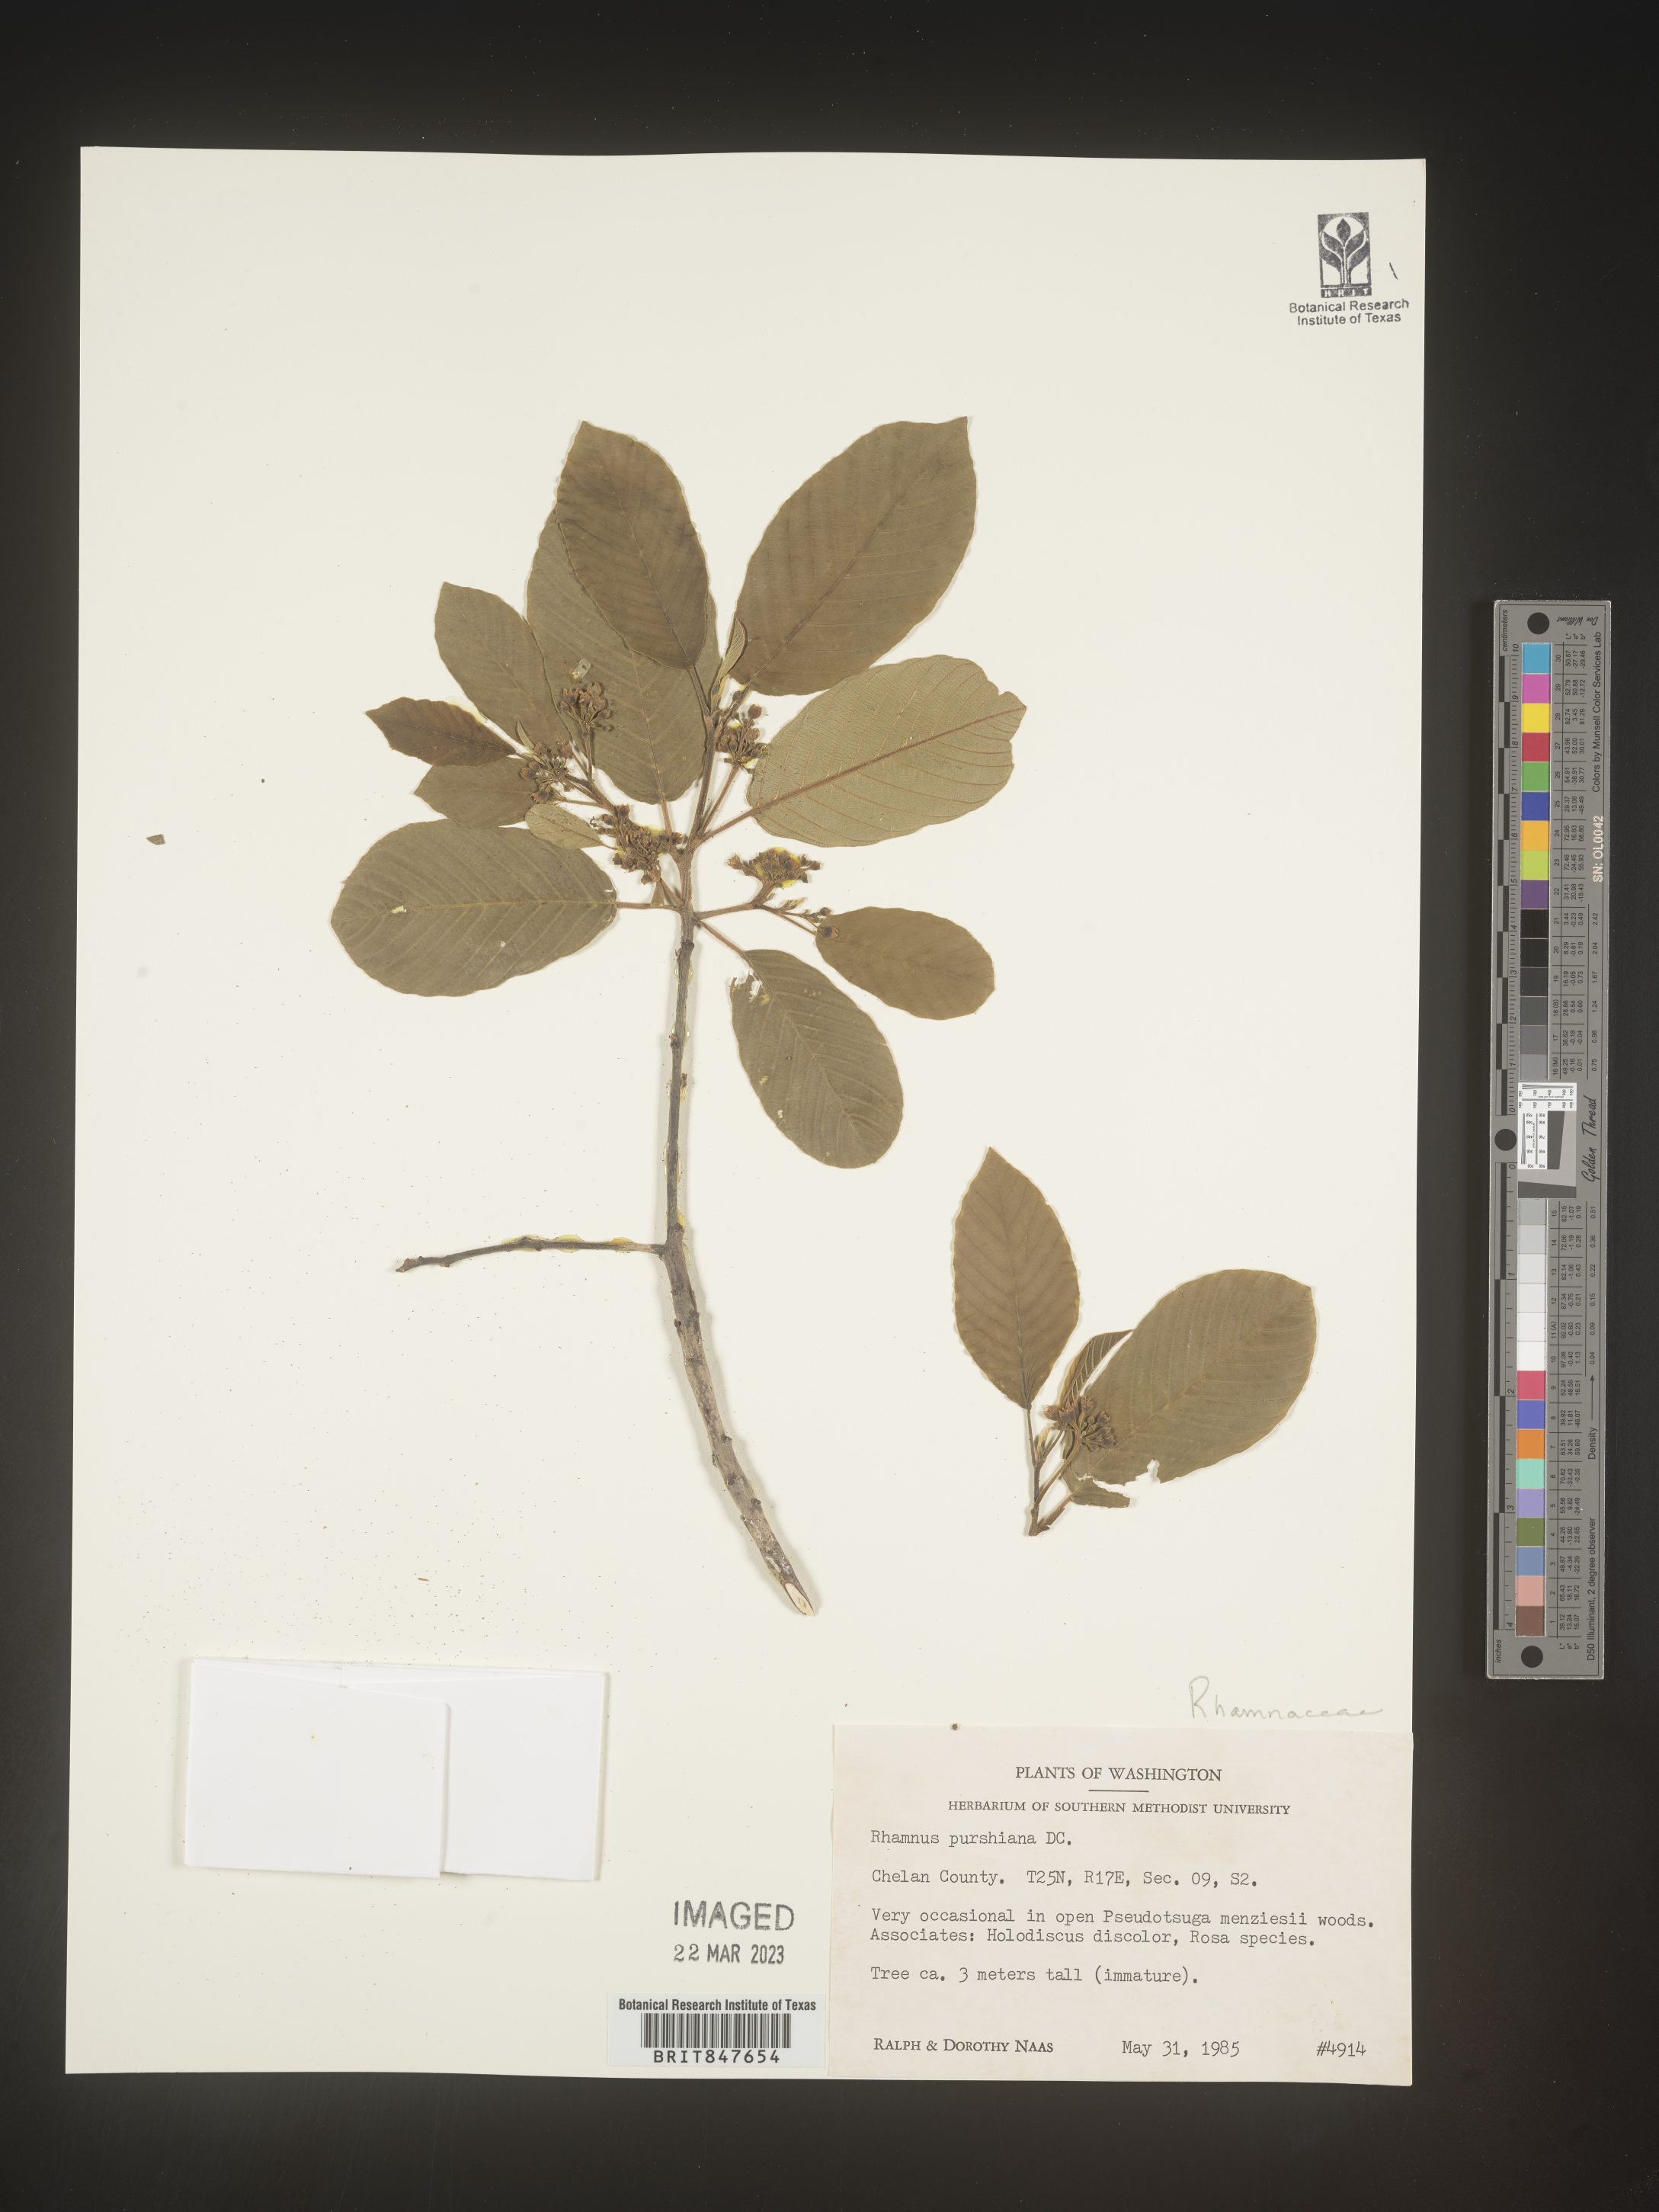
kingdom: Plantae
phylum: Tracheophyta
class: Magnoliopsida
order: Rosales
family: Rhamnaceae
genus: Frangula
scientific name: Frangula purshiana
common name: Cascara buckthorn
